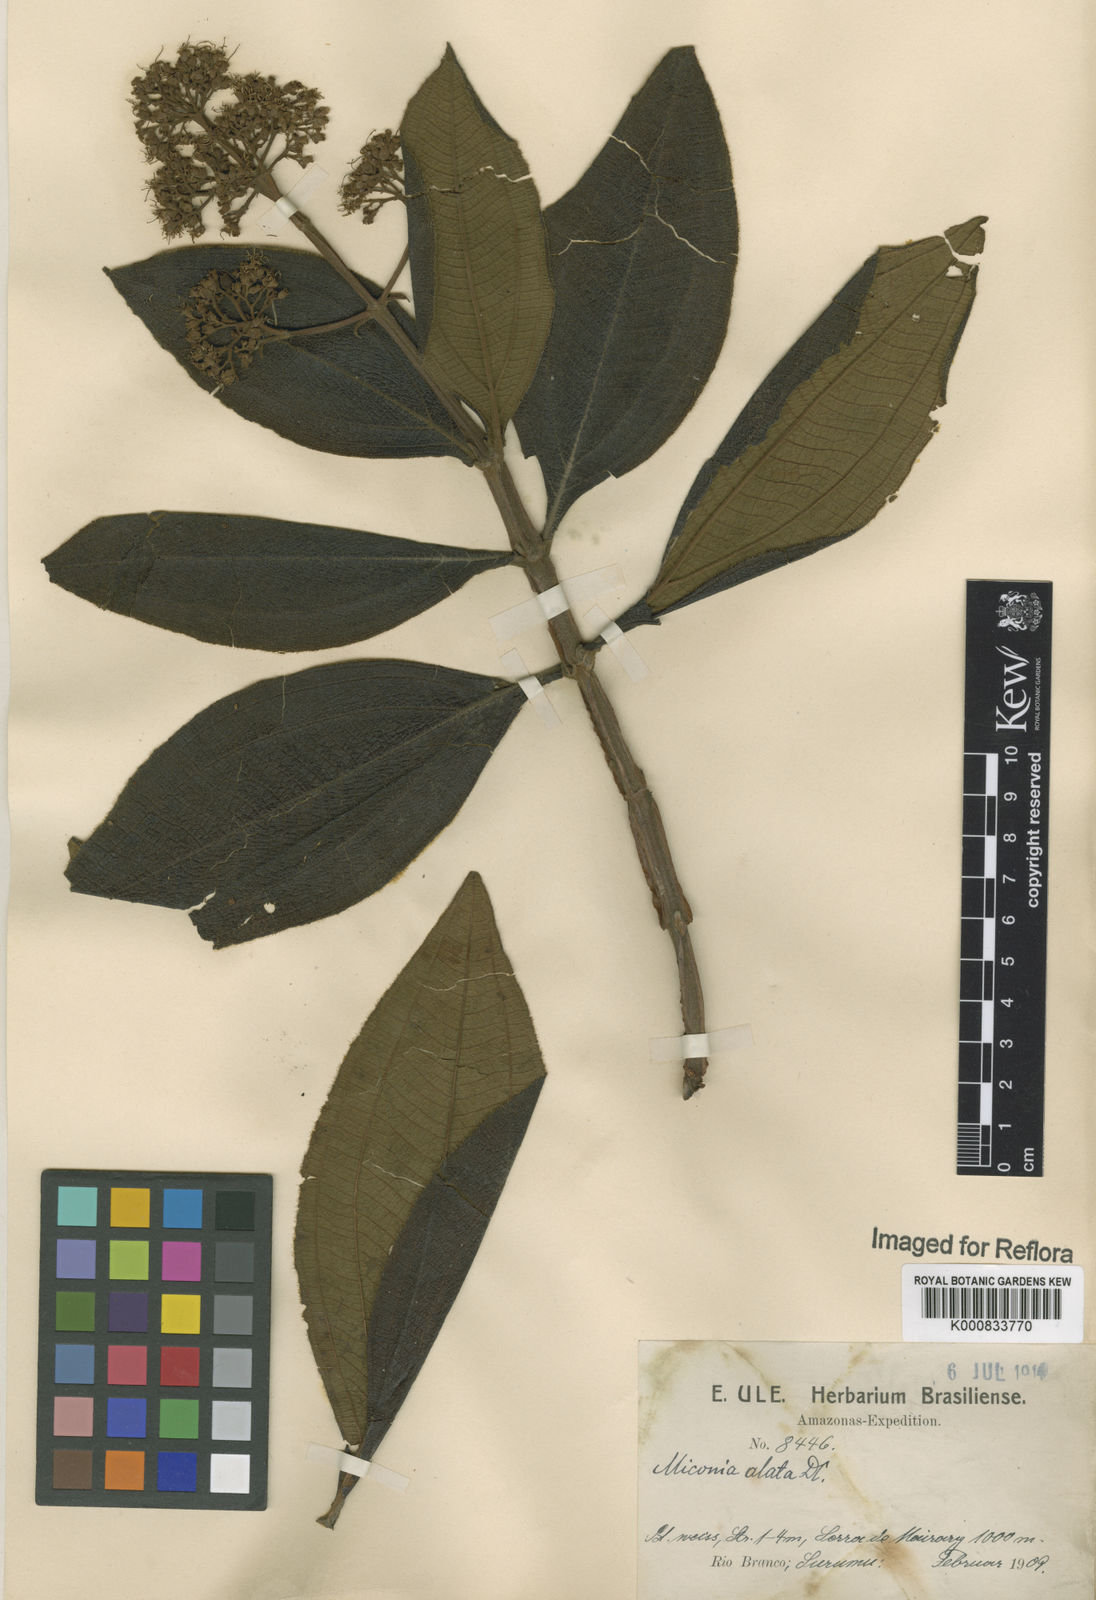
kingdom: Plantae
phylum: Tracheophyta
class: Magnoliopsida
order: Myrtales
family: Melastomataceae
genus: Miconia
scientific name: Miconia alata
